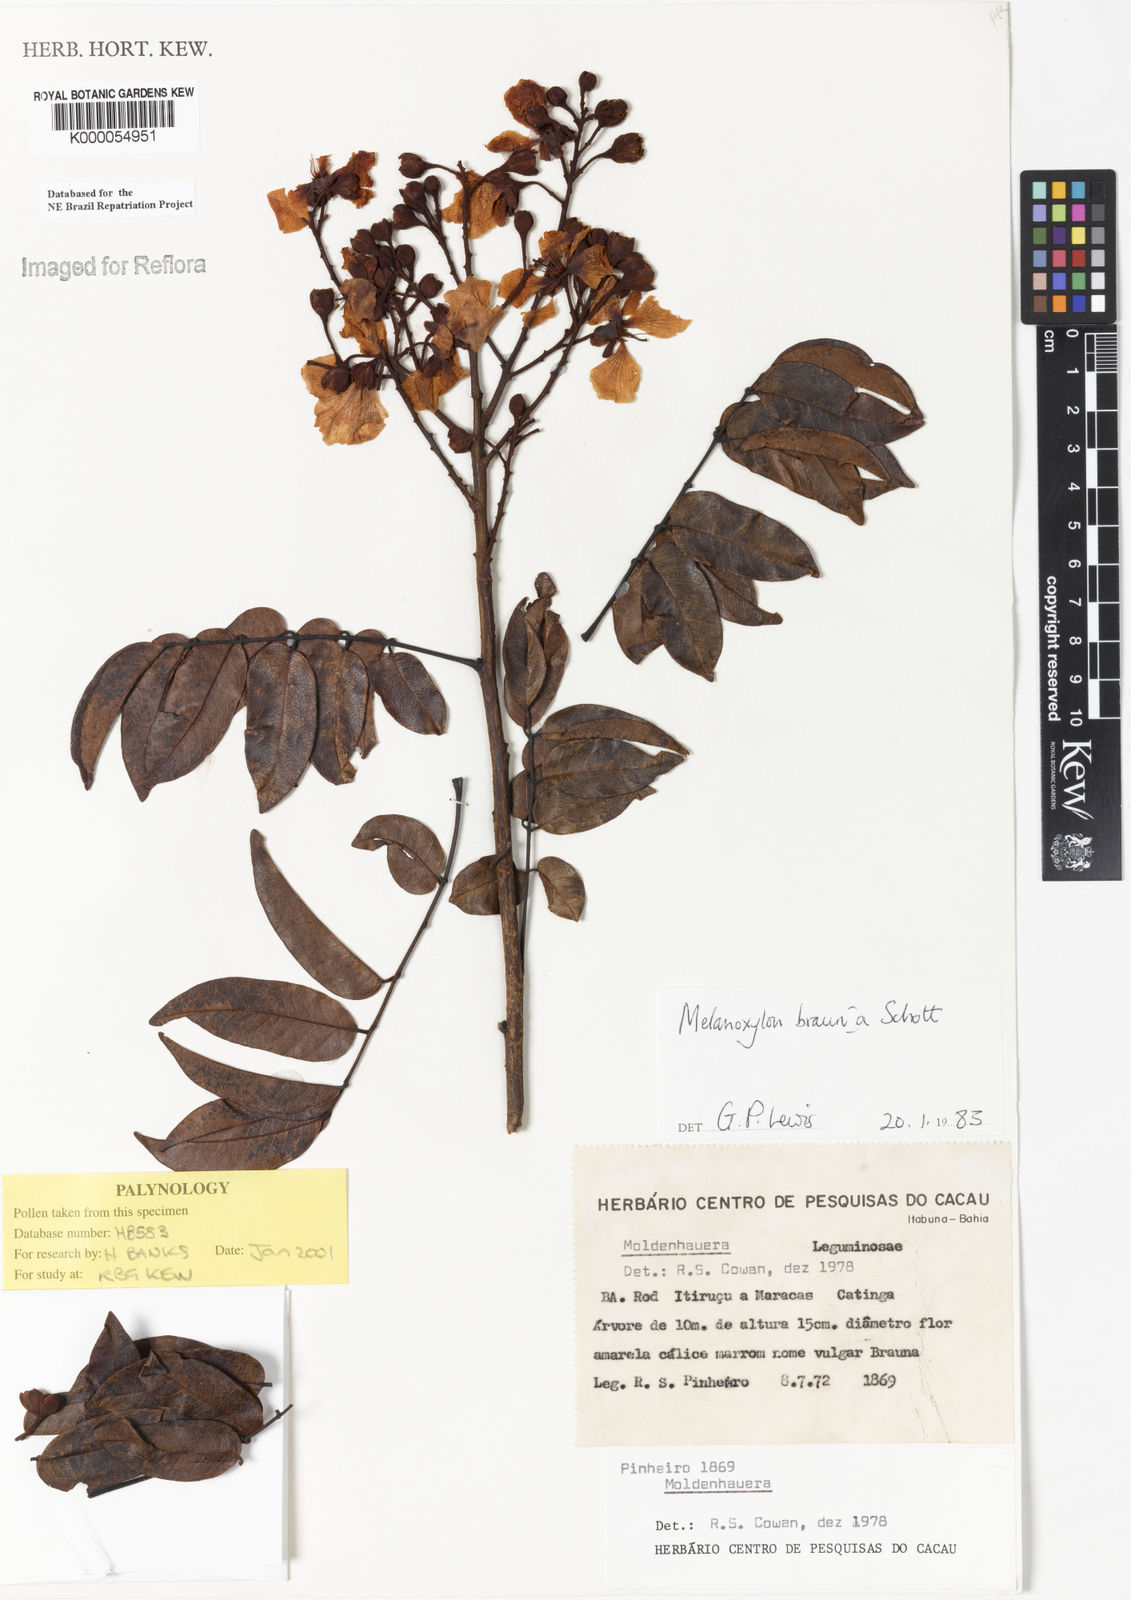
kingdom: Plantae
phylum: Tracheophyta
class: Magnoliopsida
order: Fabales
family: Fabaceae
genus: Melanoxylum
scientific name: Melanoxylum brauna
